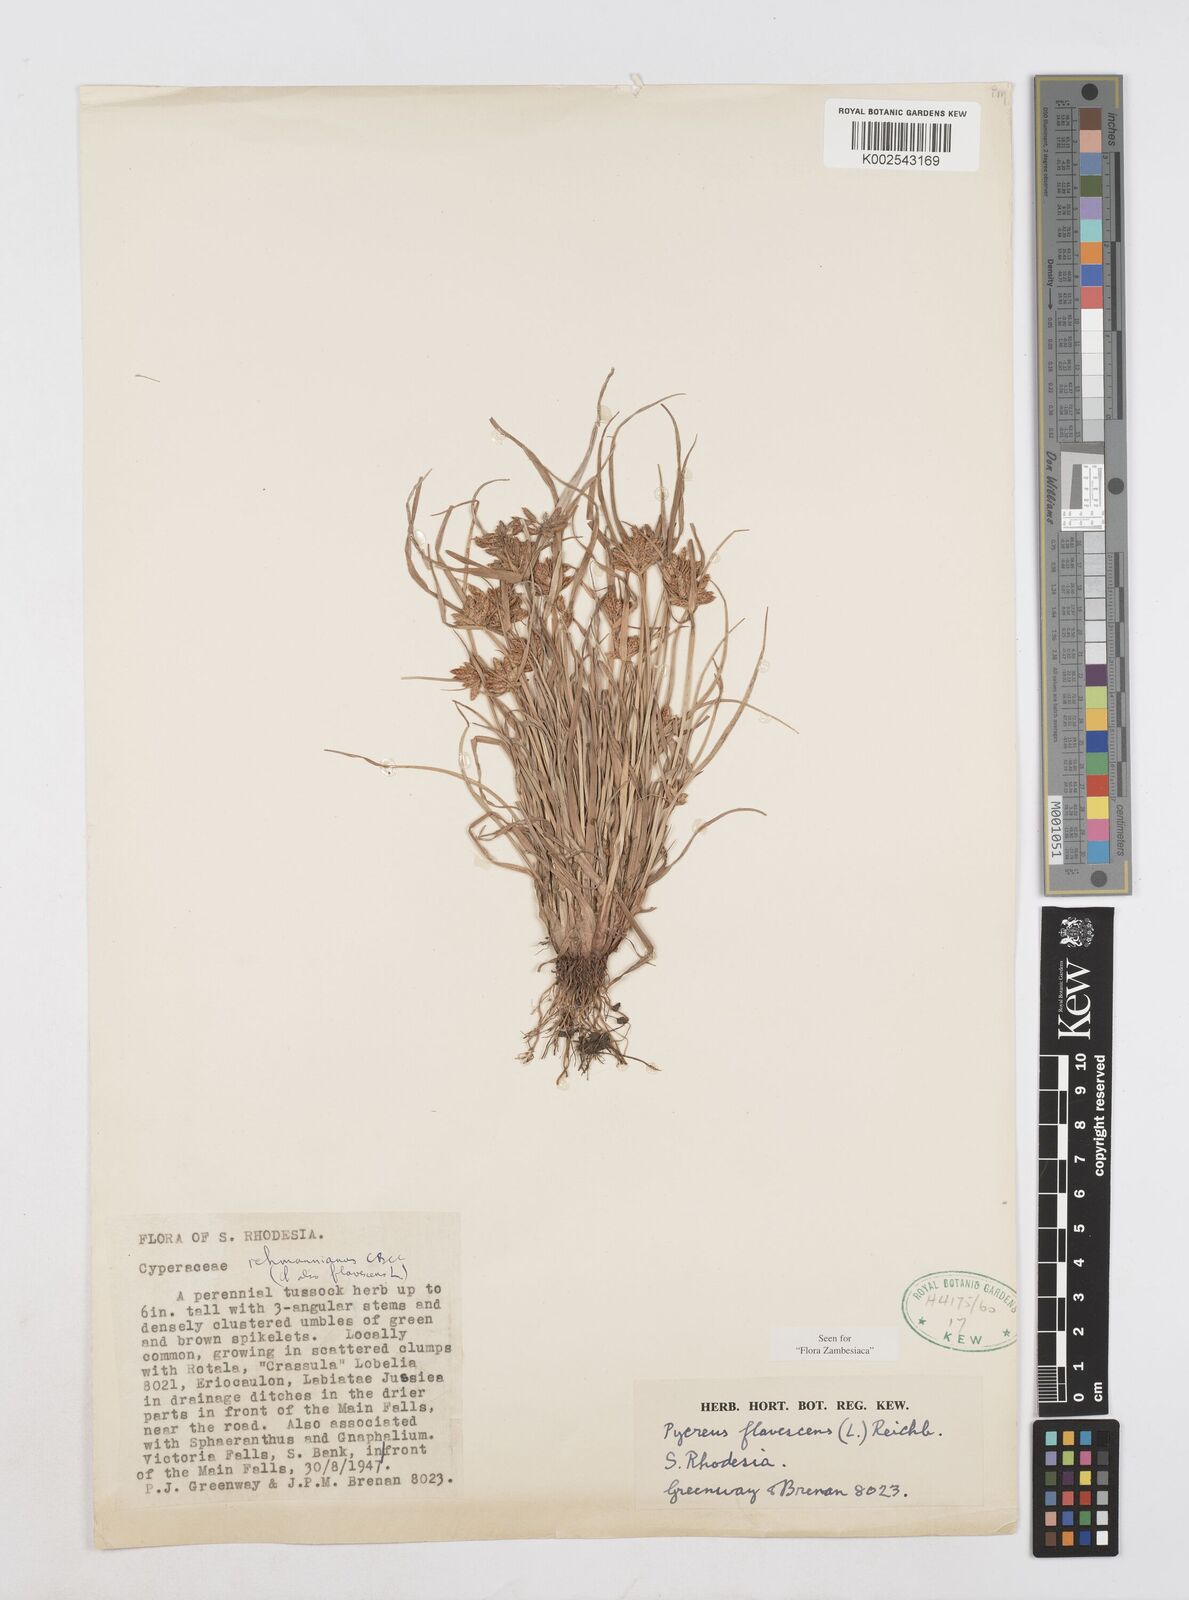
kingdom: Plantae
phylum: Tracheophyta
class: Liliopsida
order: Poales
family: Cyperaceae
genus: Cyperus
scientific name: Cyperus flavescens
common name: Yellow galingale
